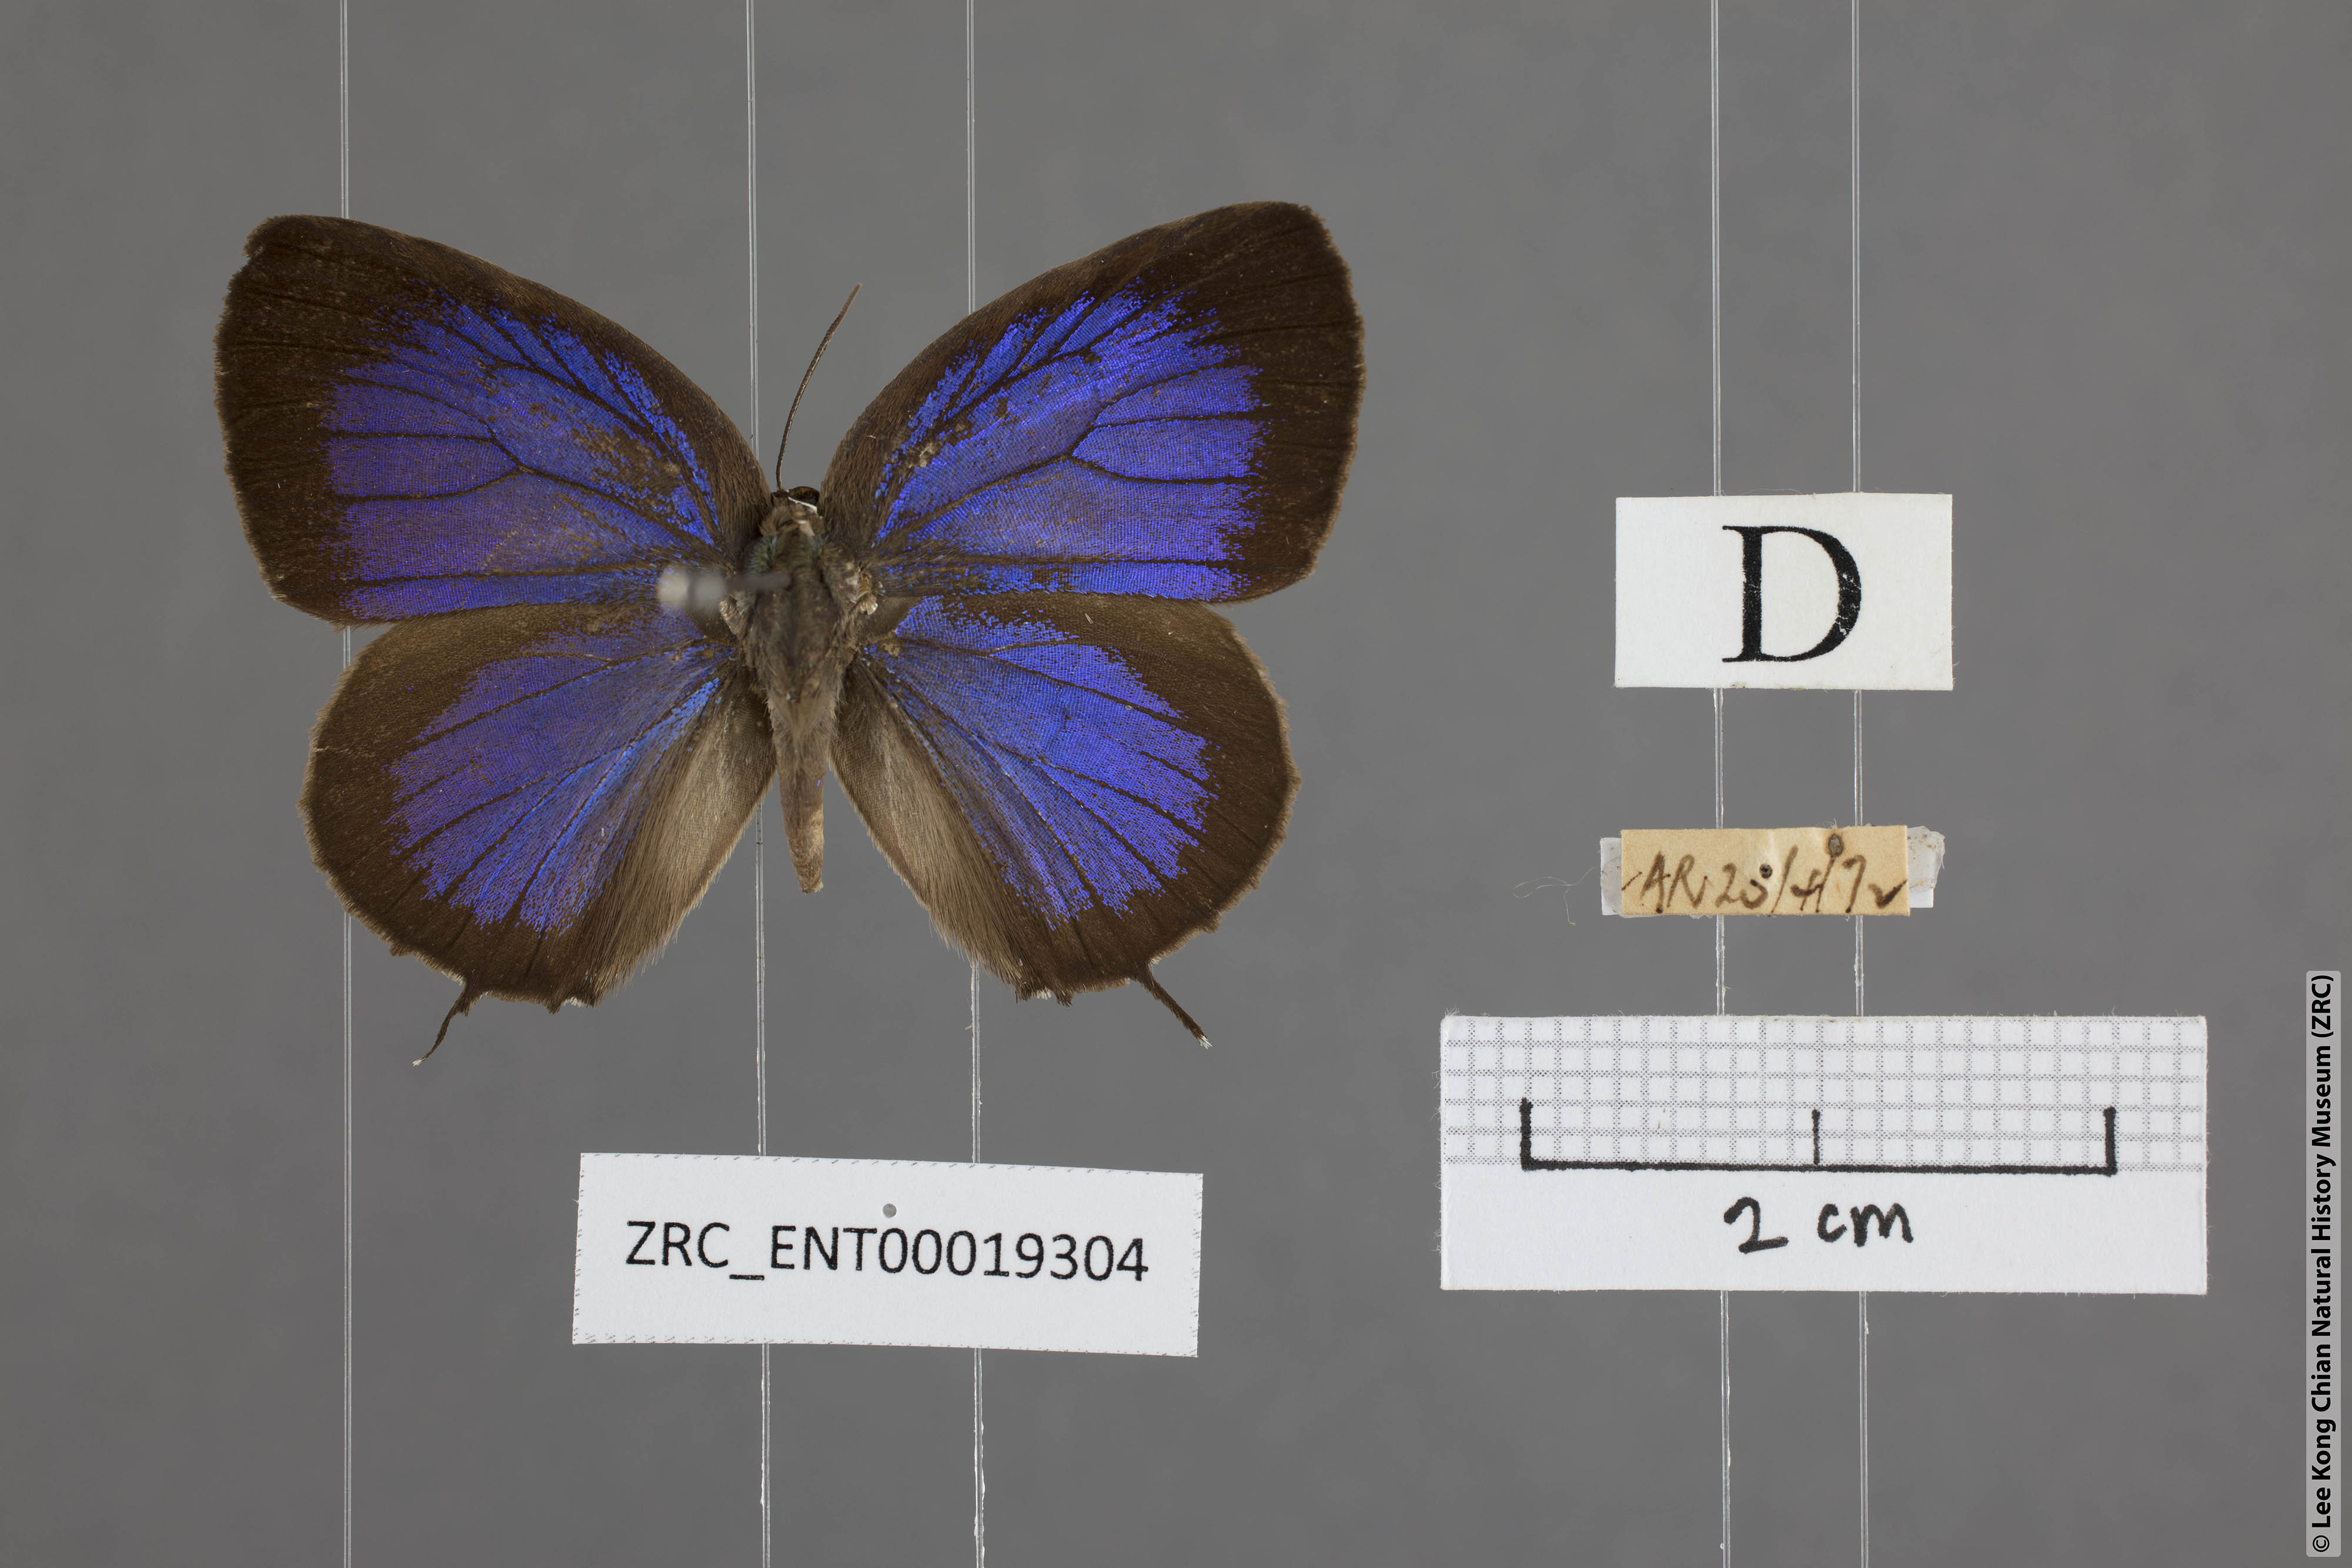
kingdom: Animalia
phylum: Arthropoda
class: Insecta
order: Lepidoptera
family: Lycaenidae
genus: Arhopala
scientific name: Arhopala barami
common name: Wood's oakblue
